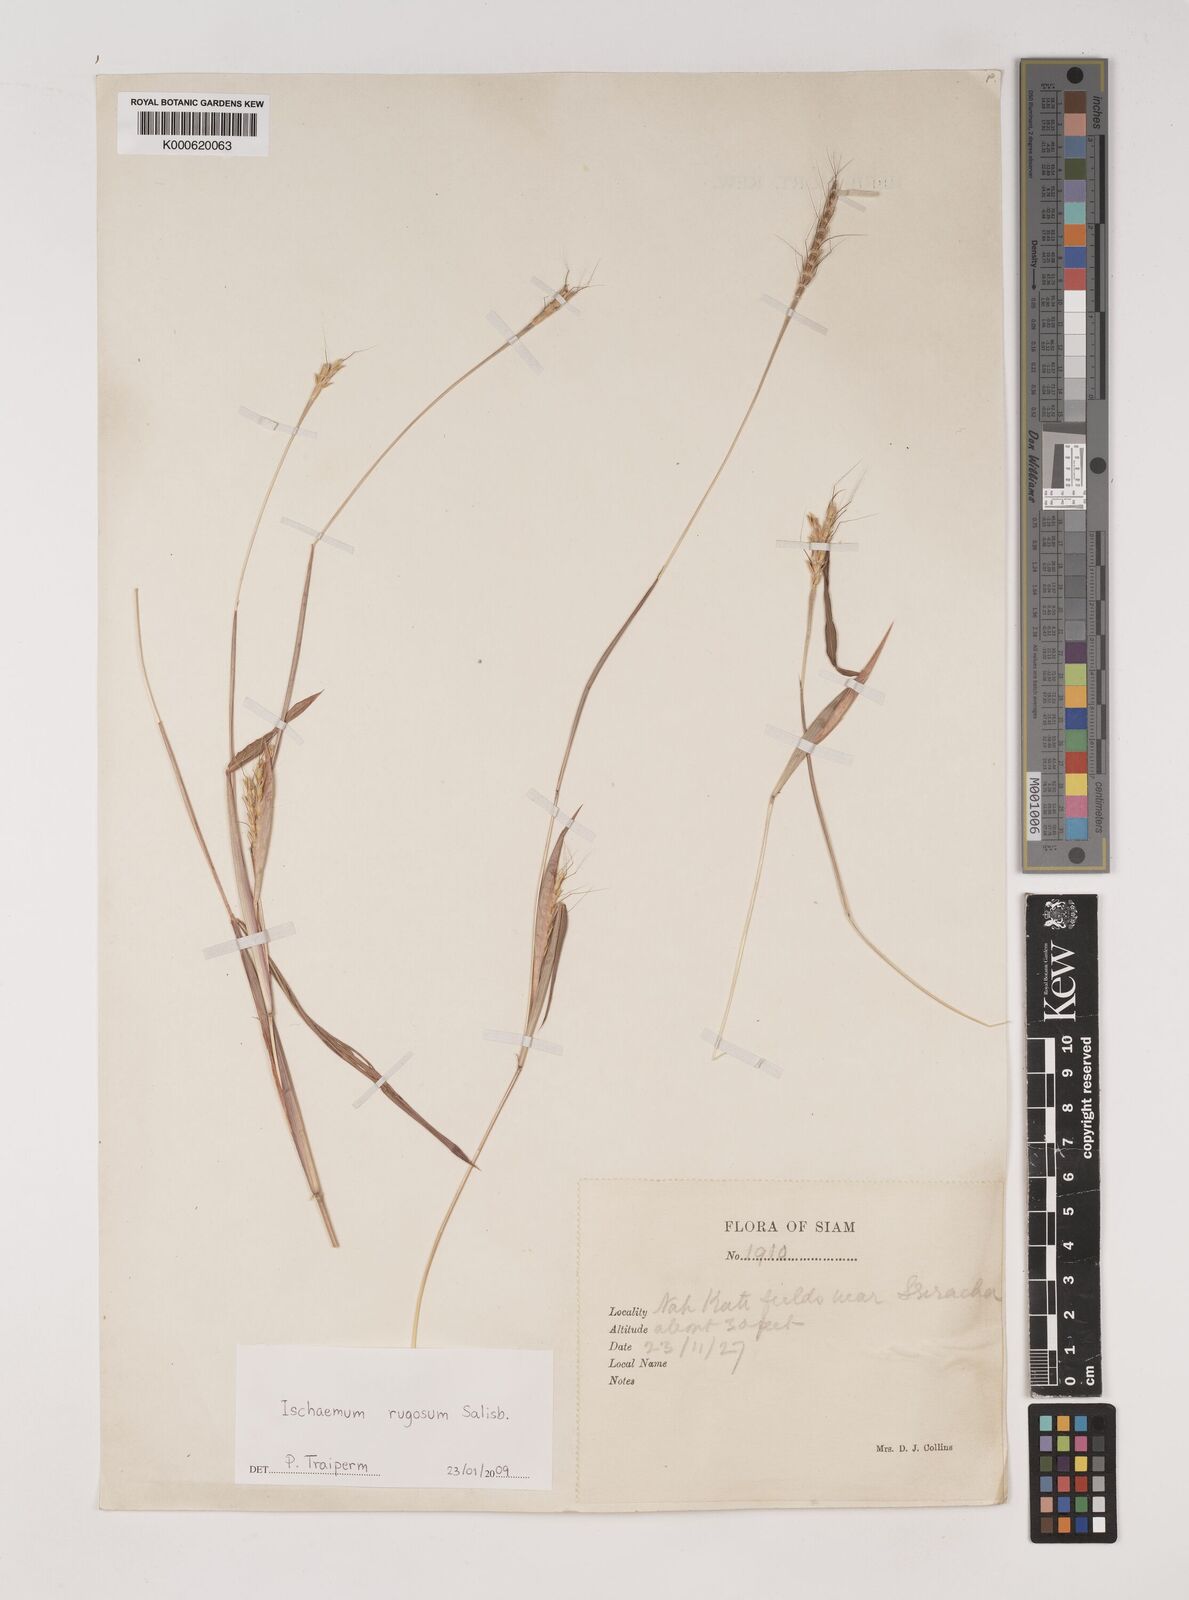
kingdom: Plantae
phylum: Tracheophyta
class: Liliopsida
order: Poales
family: Poaceae
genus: Ischaemum
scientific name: Ischaemum rugosum
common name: Saramatta grass
